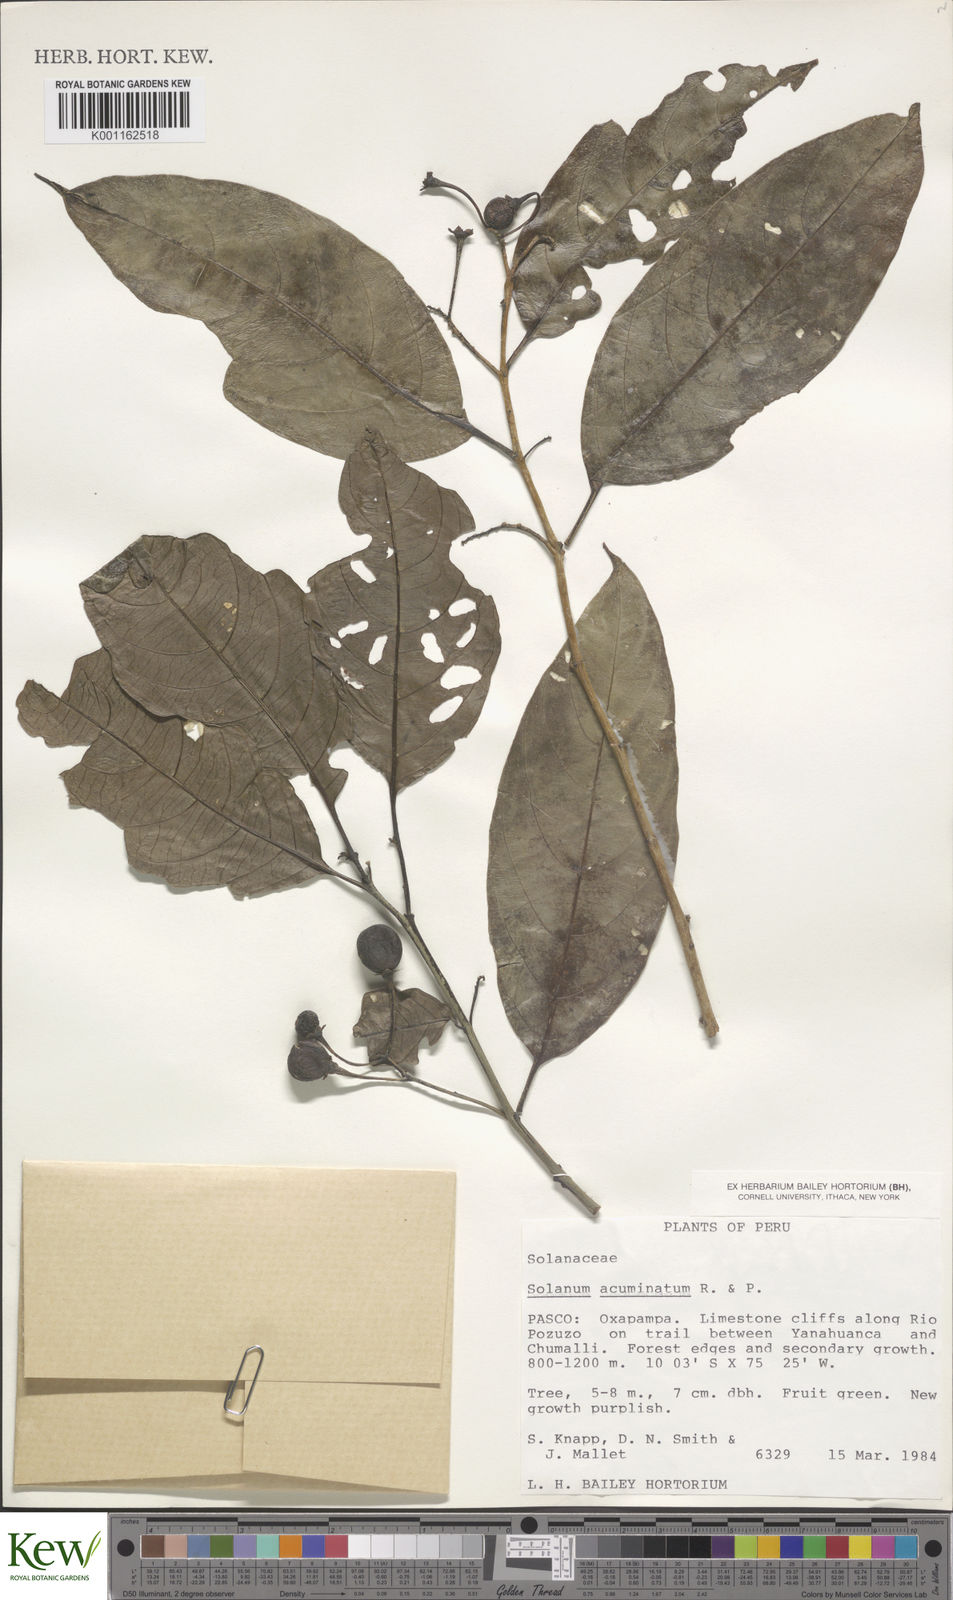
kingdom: Plantae
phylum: Tracheophyta
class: Magnoliopsida
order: Solanales
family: Solanaceae
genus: Solanum
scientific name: Solanum acuminatum
